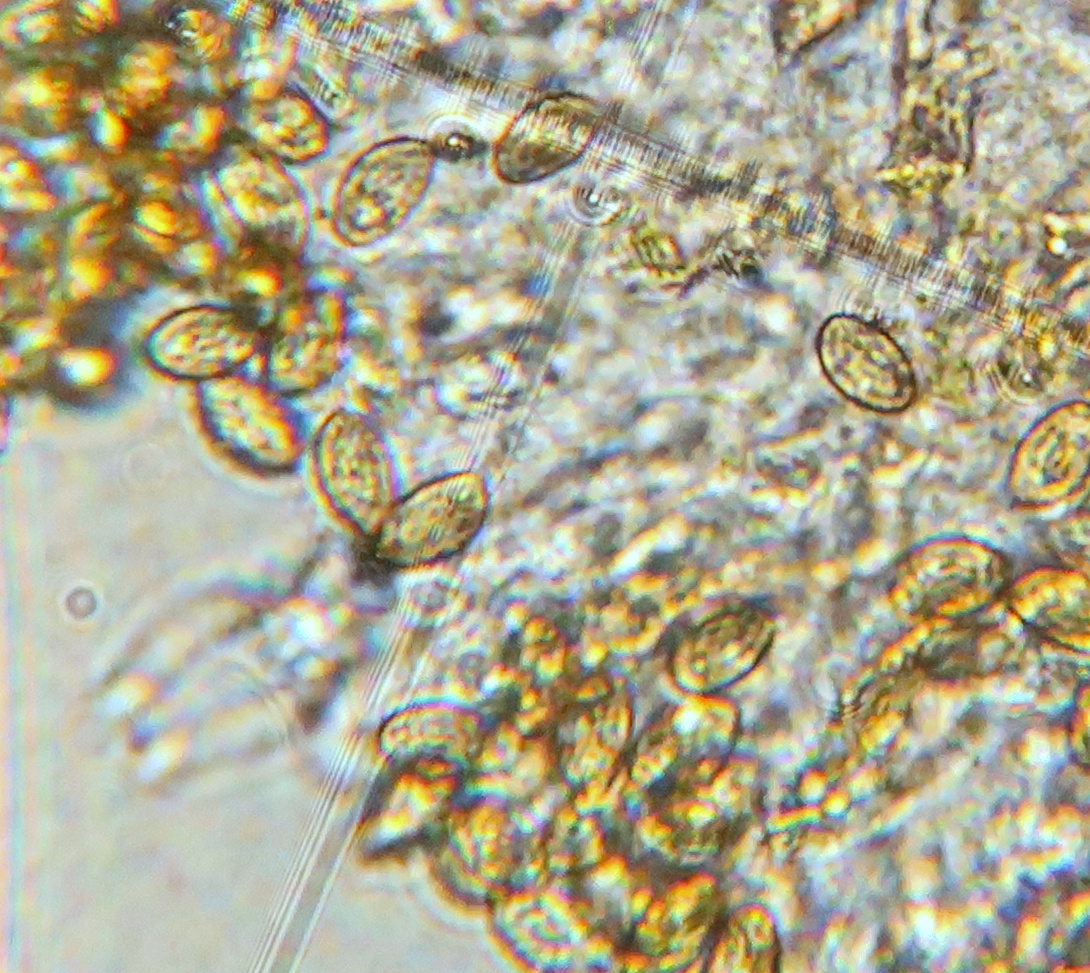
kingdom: Fungi
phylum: Basidiomycota
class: Agaricomycetes
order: Agaricales
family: Cortinariaceae
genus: Cortinarius
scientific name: Cortinarius
